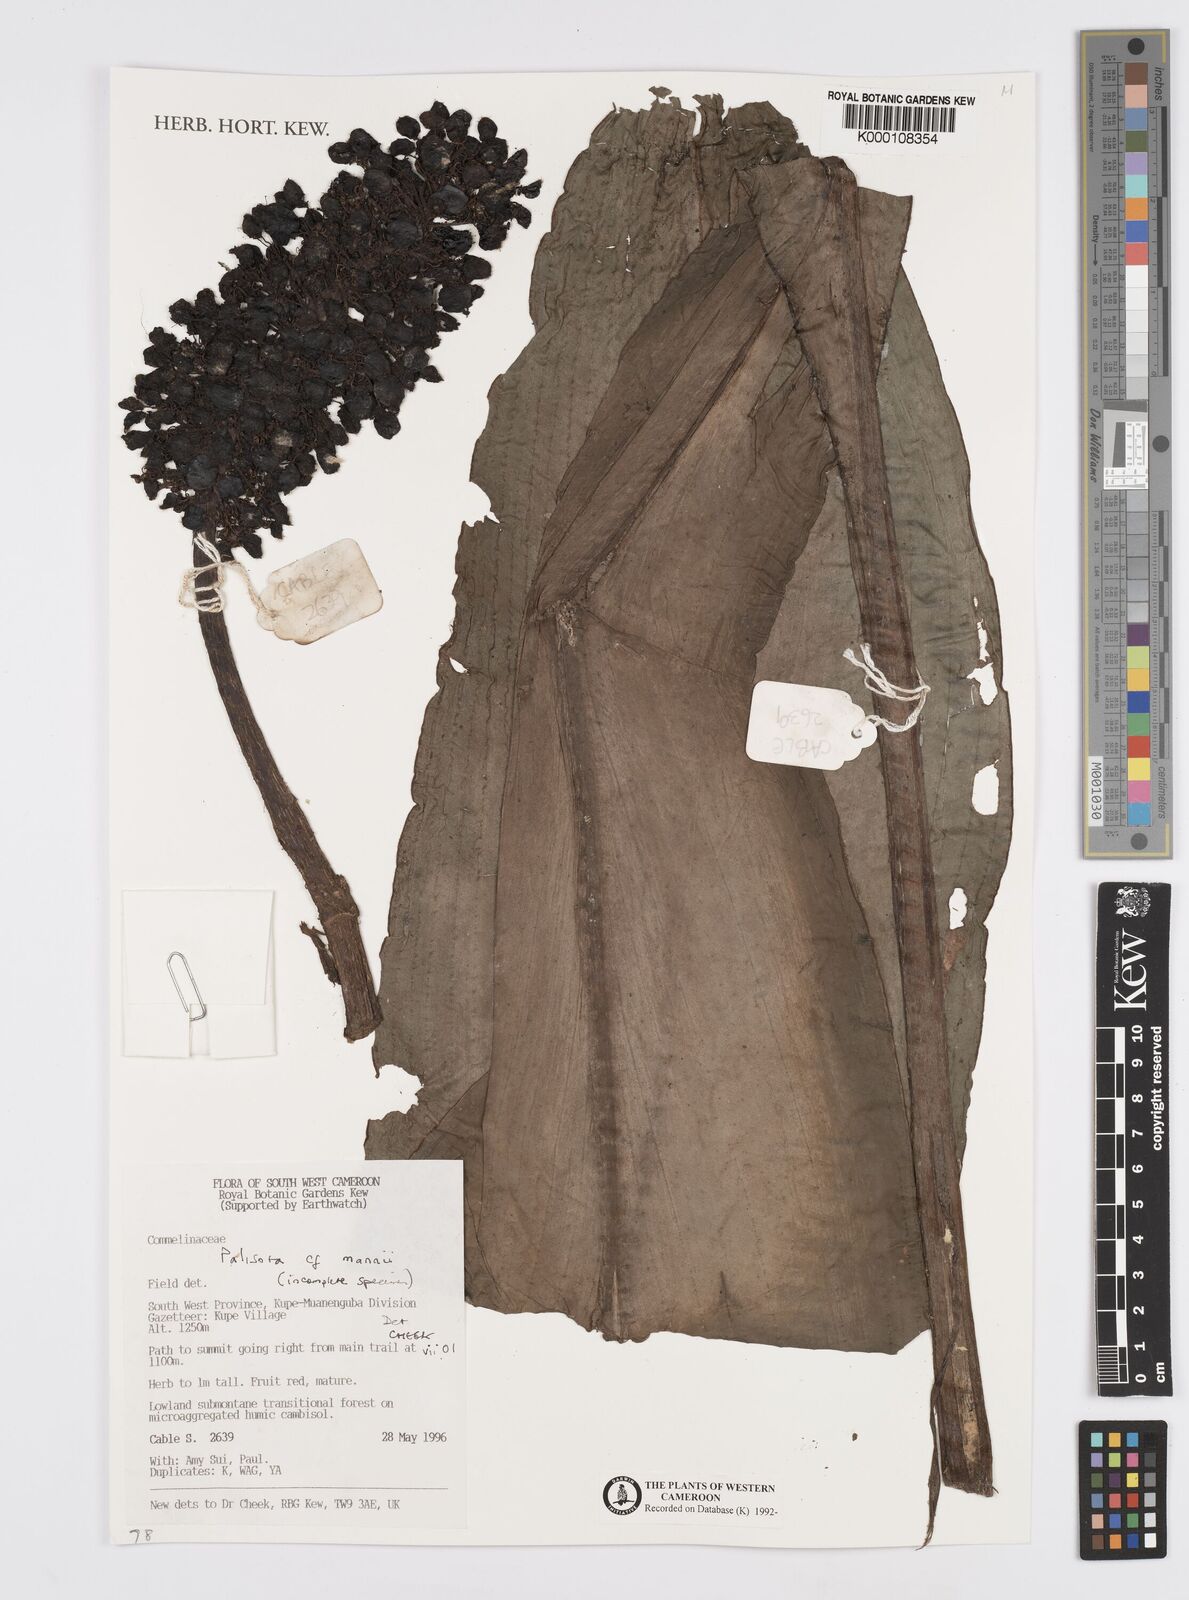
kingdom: Plantae
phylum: Tracheophyta
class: Liliopsida
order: Commelinales
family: Commelinaceae
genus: Palisota
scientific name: Palisota mannii
